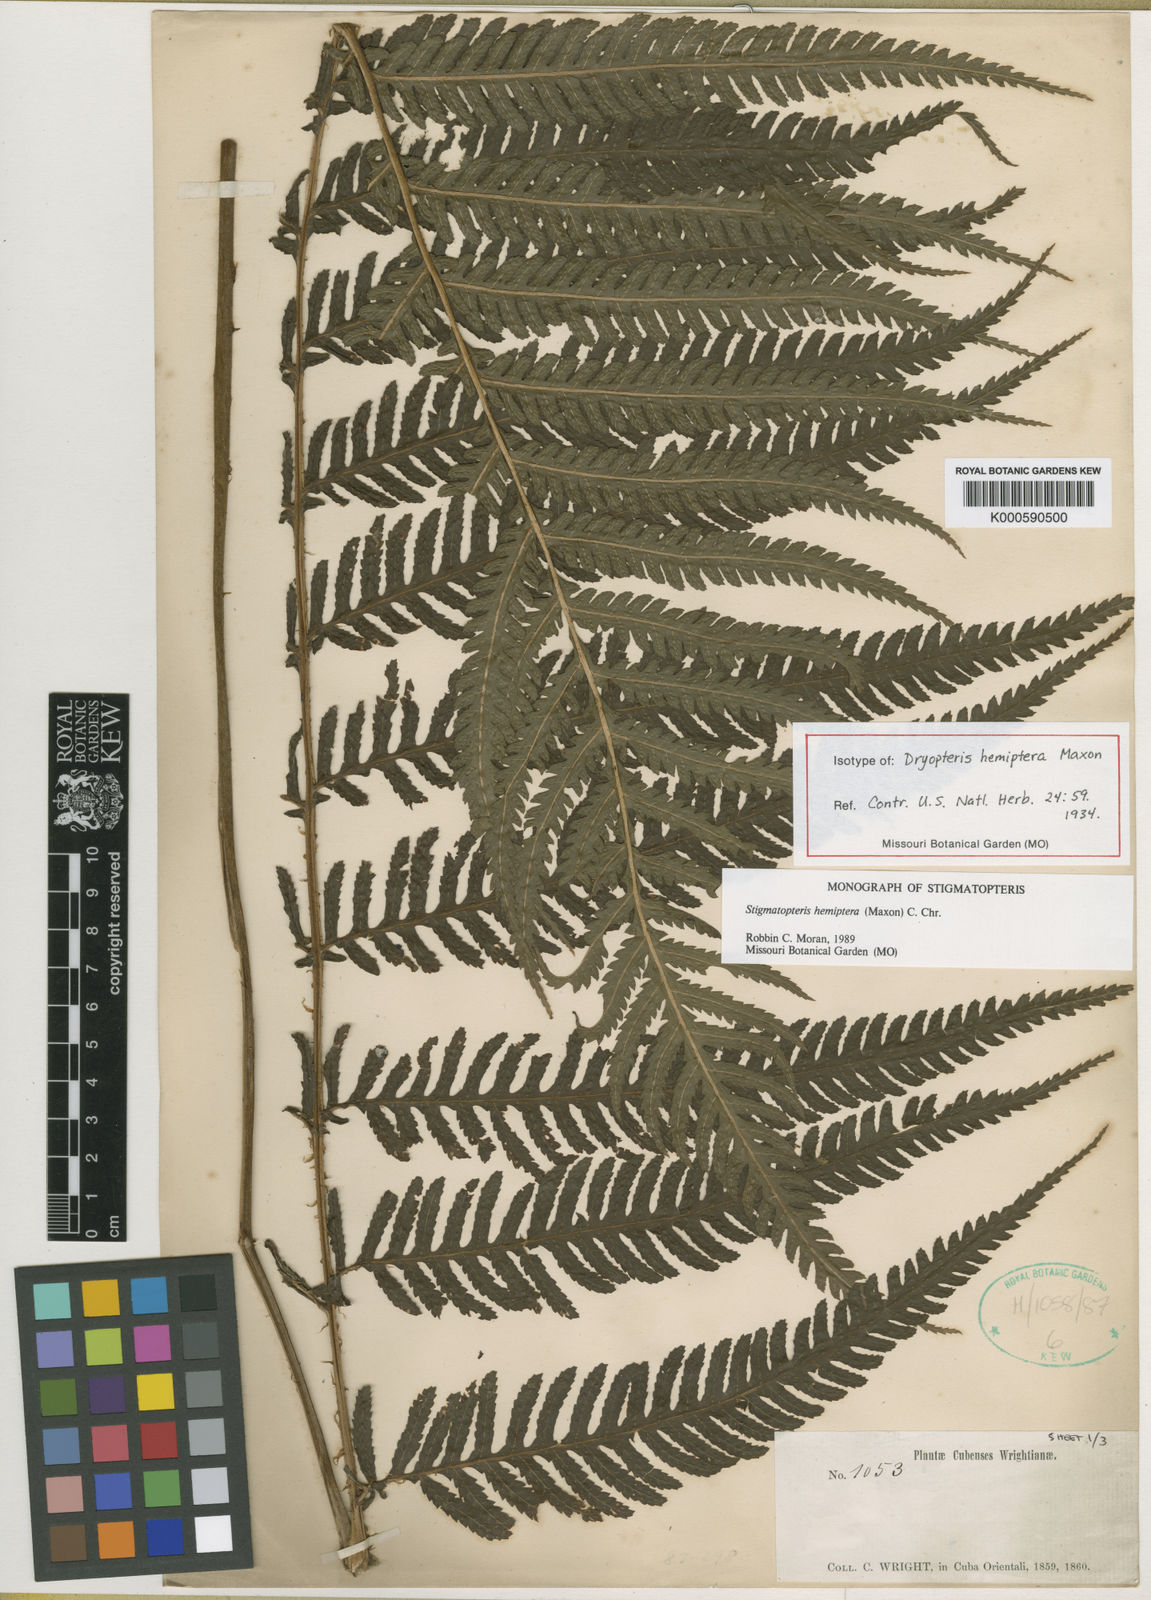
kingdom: Plantae
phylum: Tracheophyta
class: Polypodiopsida
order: Polypodiales
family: Dryopteridaceae
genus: Stigmatopteris
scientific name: Stigmatopteris gemmipara
